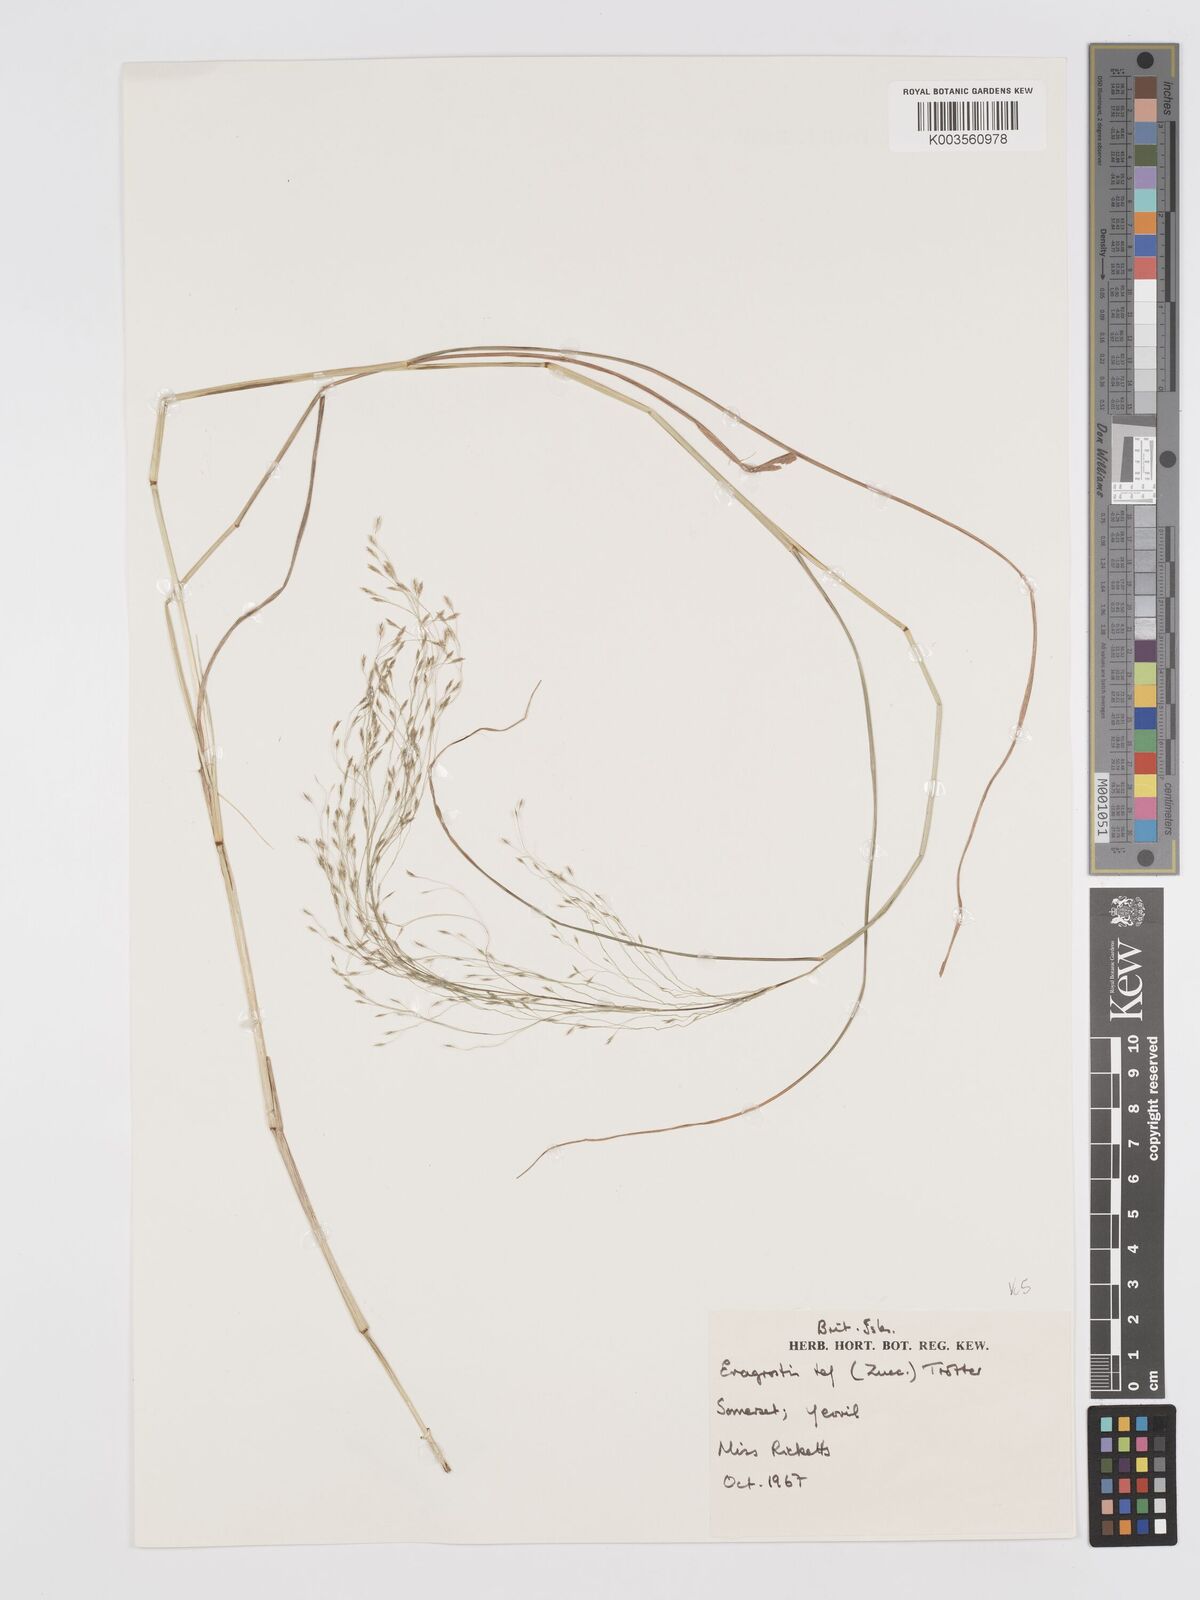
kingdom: Plantae
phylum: Tracheophyta
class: Liliopsida
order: Poales
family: Poaceae
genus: Eragrostis
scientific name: Eragrostis tef
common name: Teff
